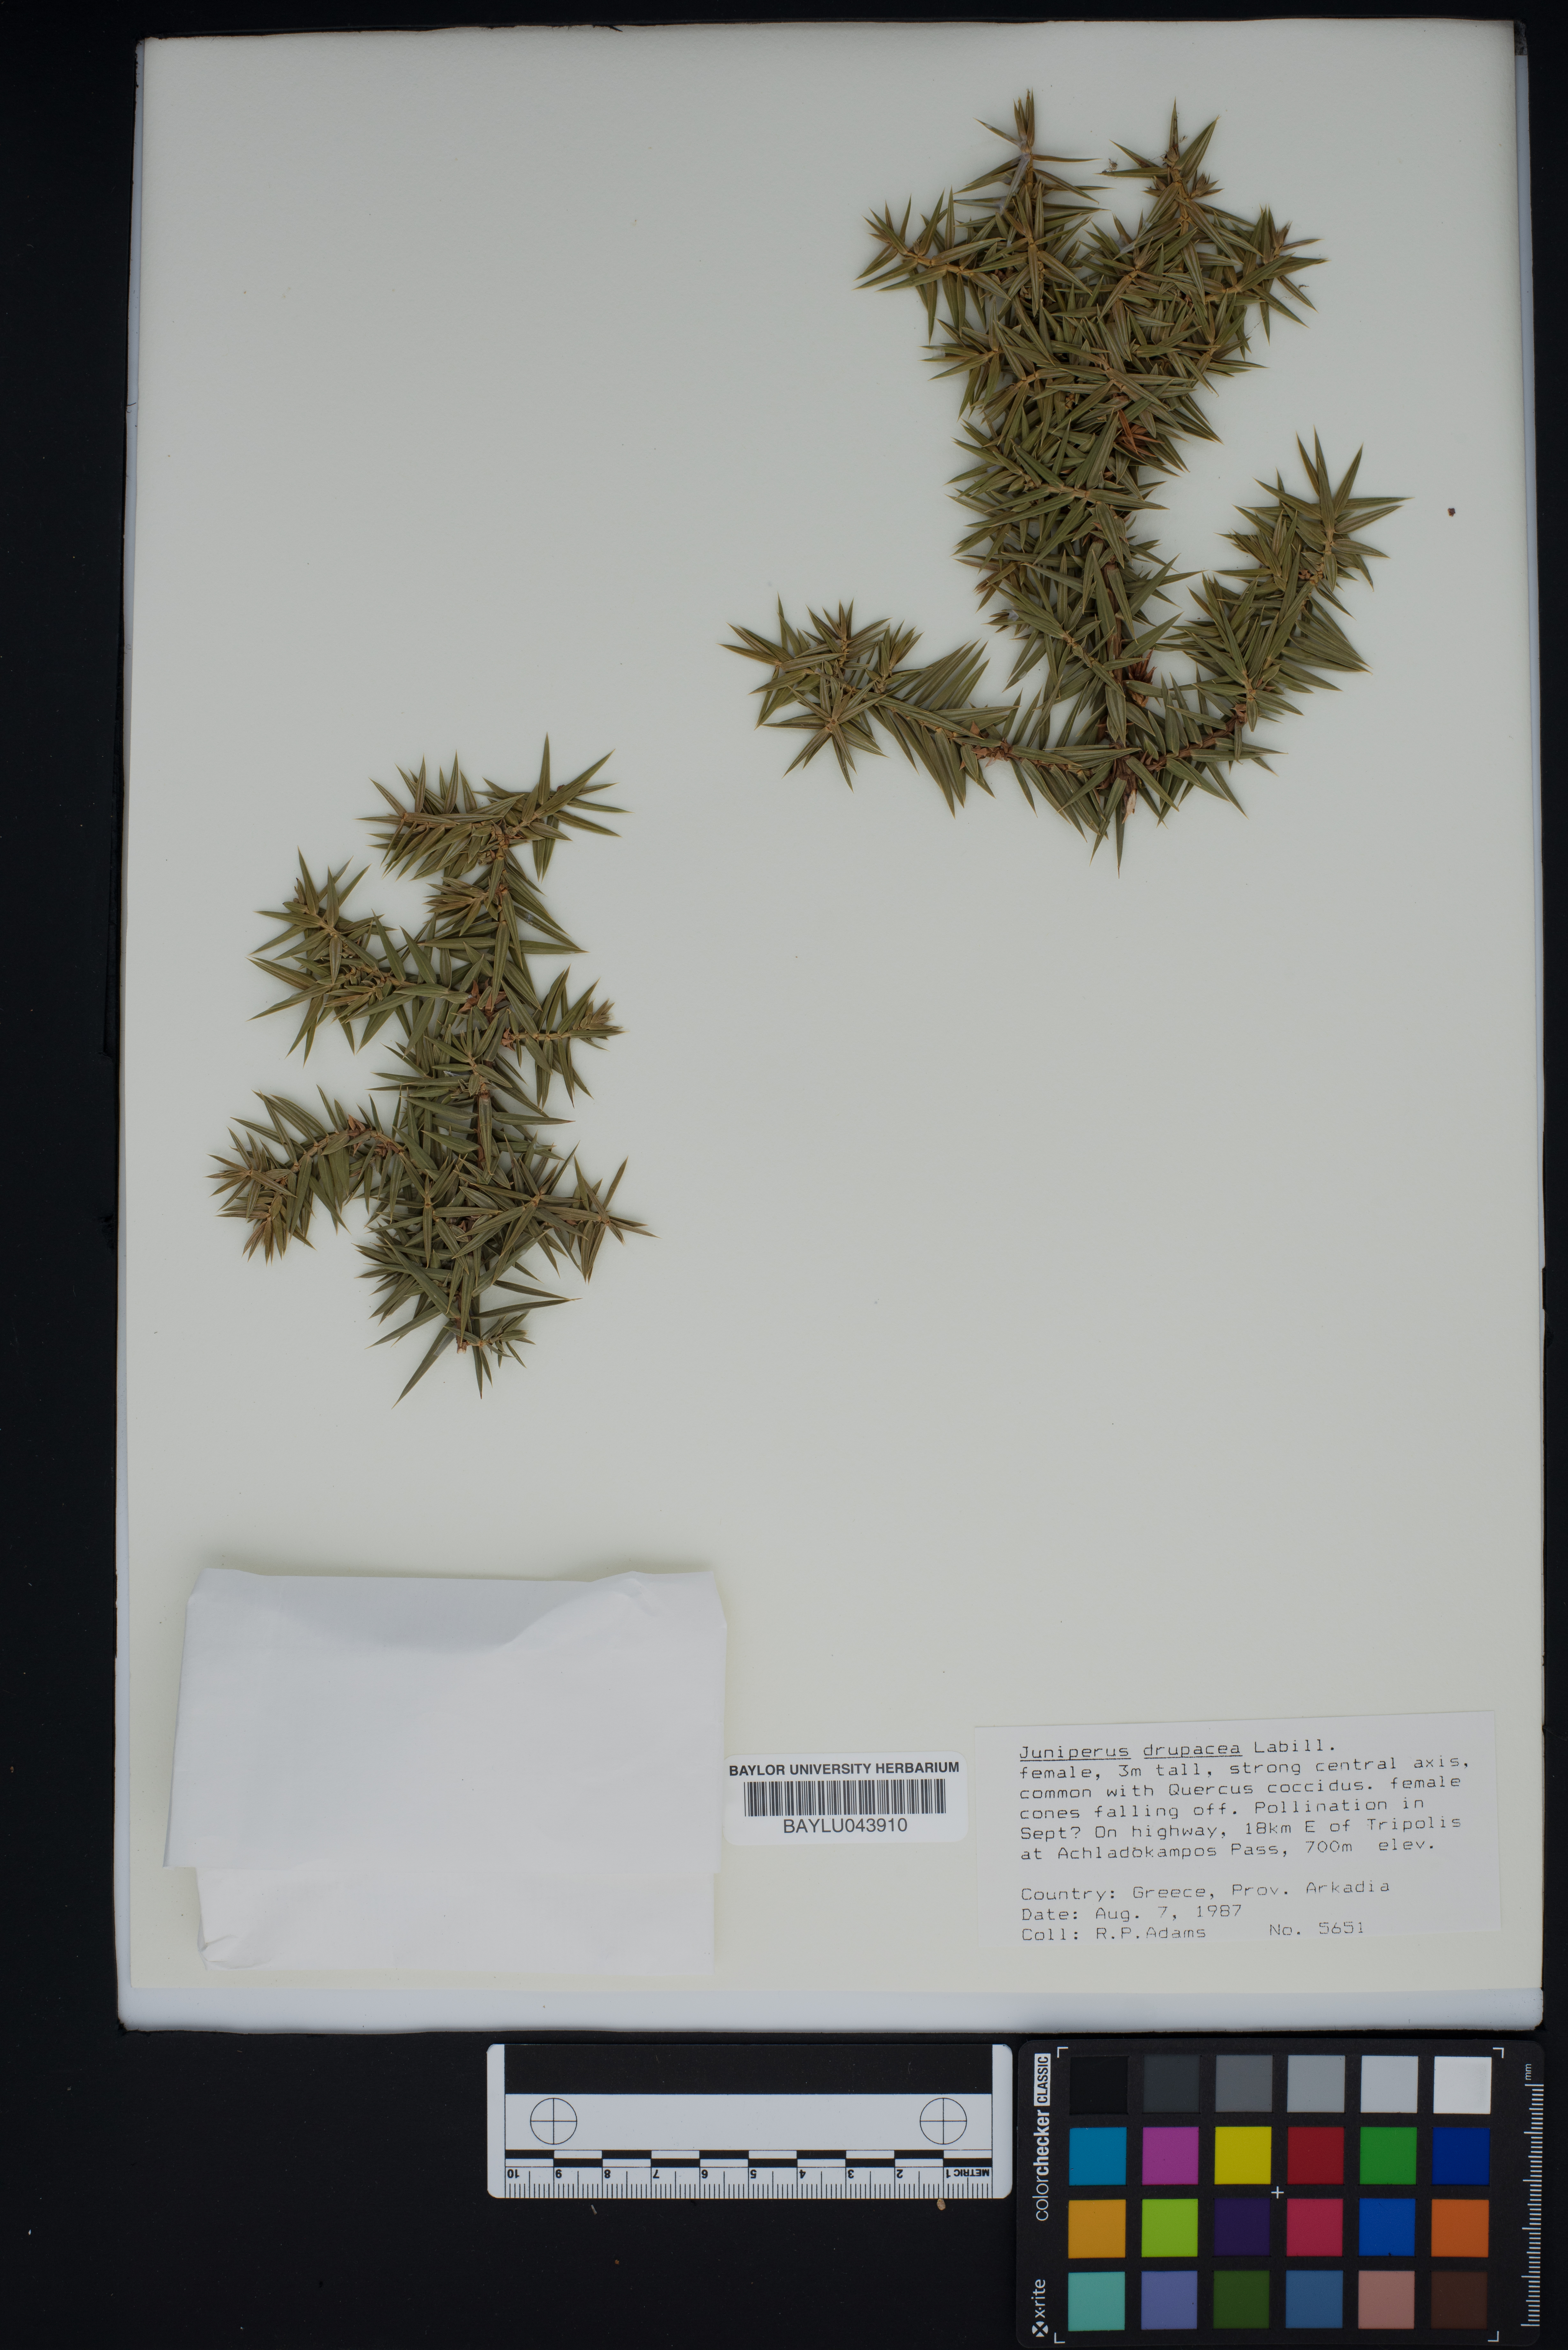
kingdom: Plantae
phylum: Tracheophyta
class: Pinopsida
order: Pinales
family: Cupressaceae
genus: Juniperus
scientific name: Juniperus drupacea
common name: Syrian juniper
